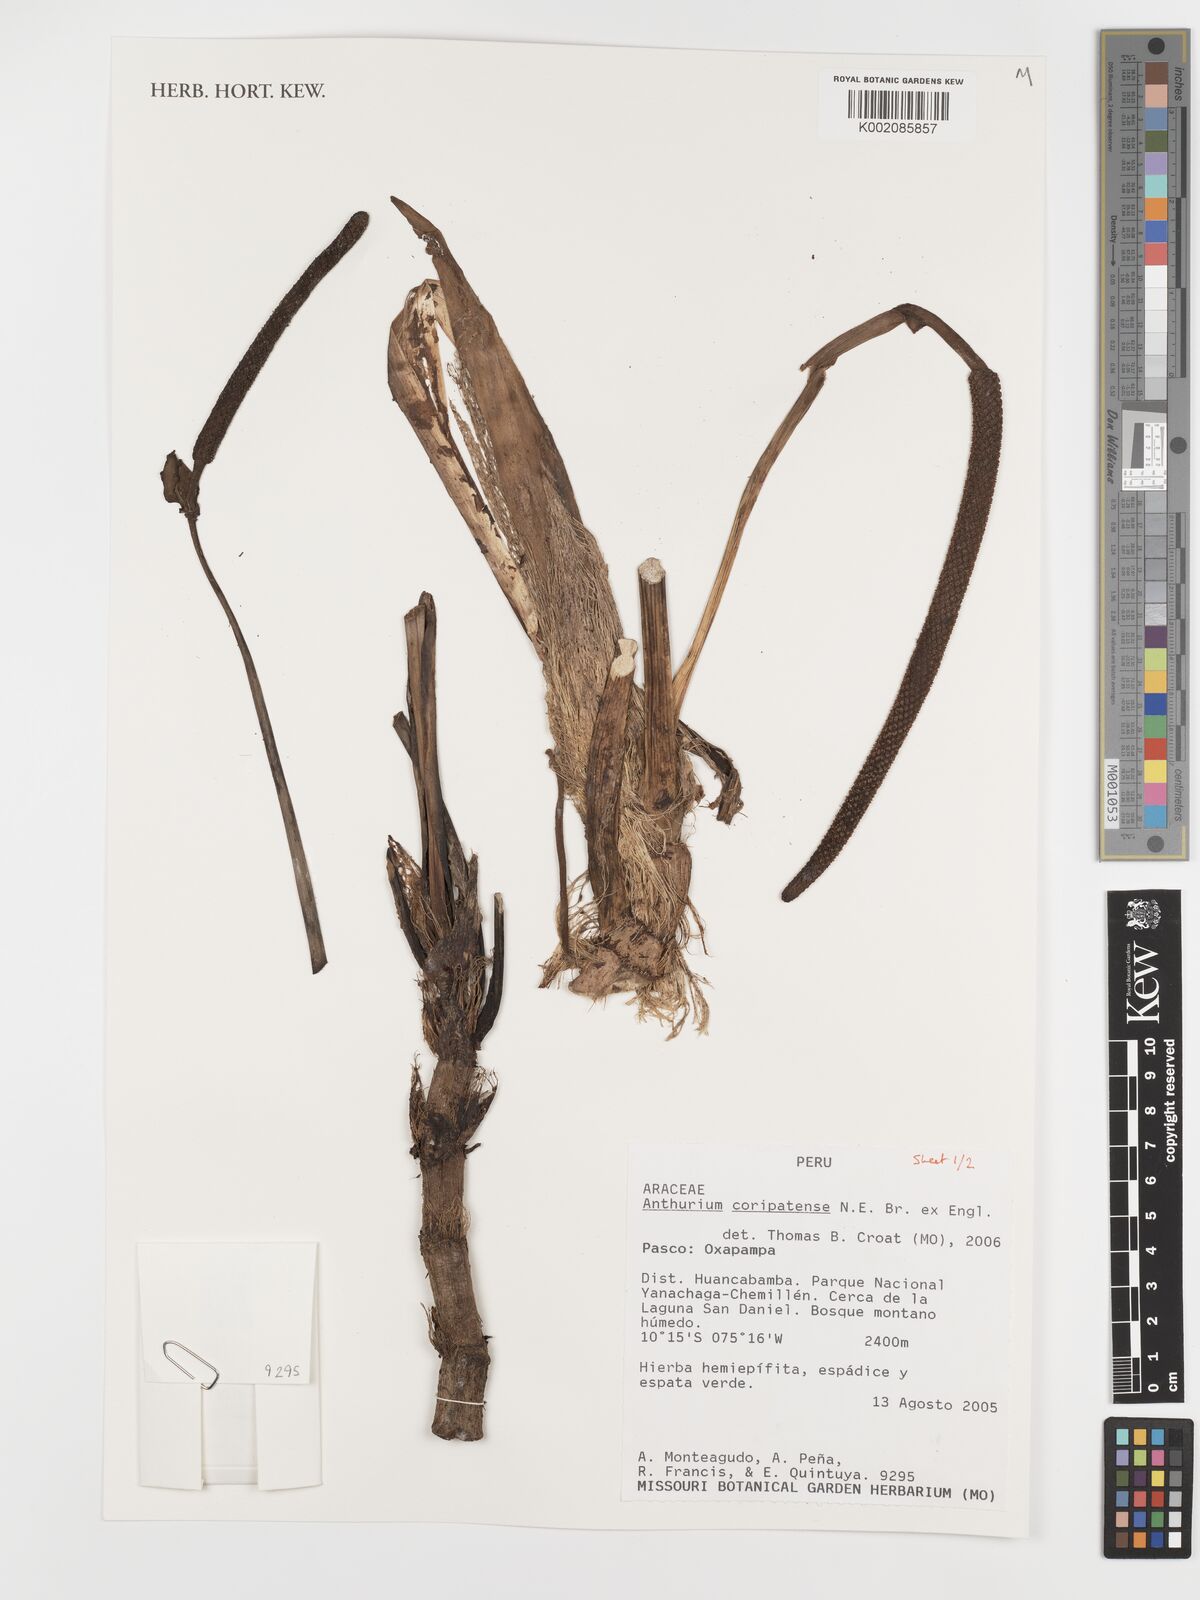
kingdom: Plantae
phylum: Tracheophyta
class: Liliopsida
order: Alismatales
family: Araceae
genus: Anthurium
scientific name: Anthurium coripatense
